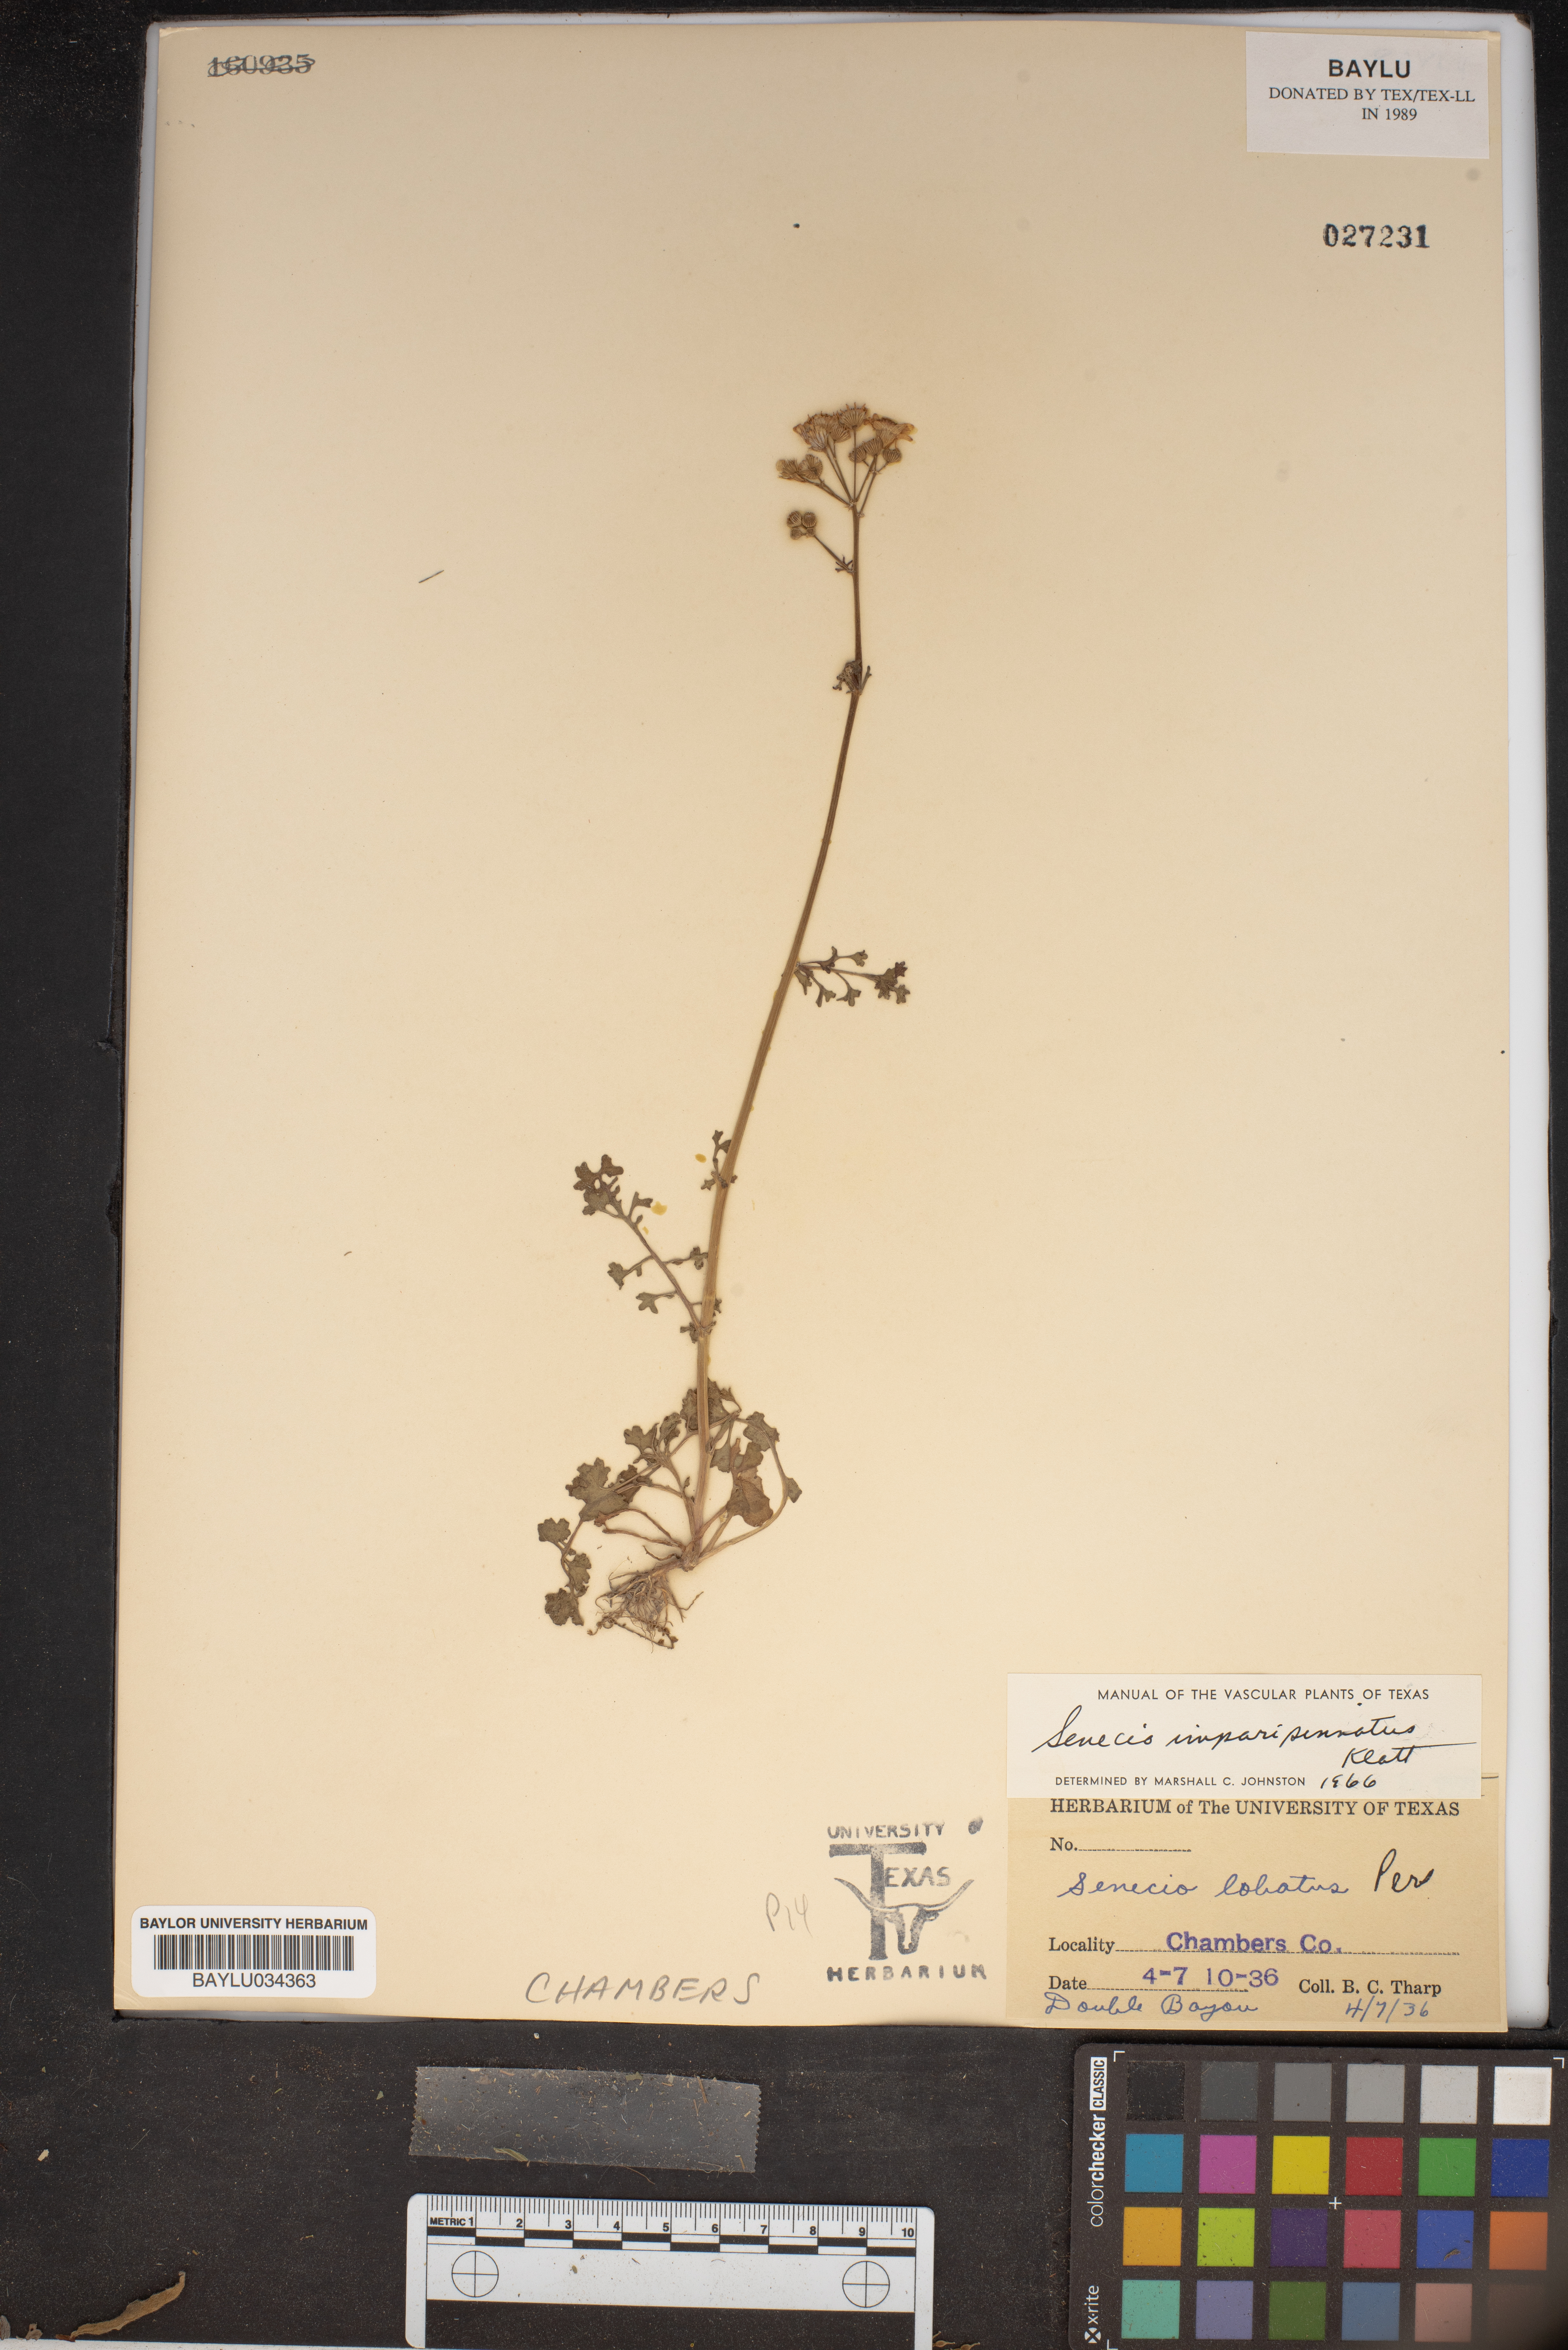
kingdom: Plantae
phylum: Tracheophyta
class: Magnoliopsida
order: Asterales
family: Asteraceae
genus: Packera
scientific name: Packera tampicana
